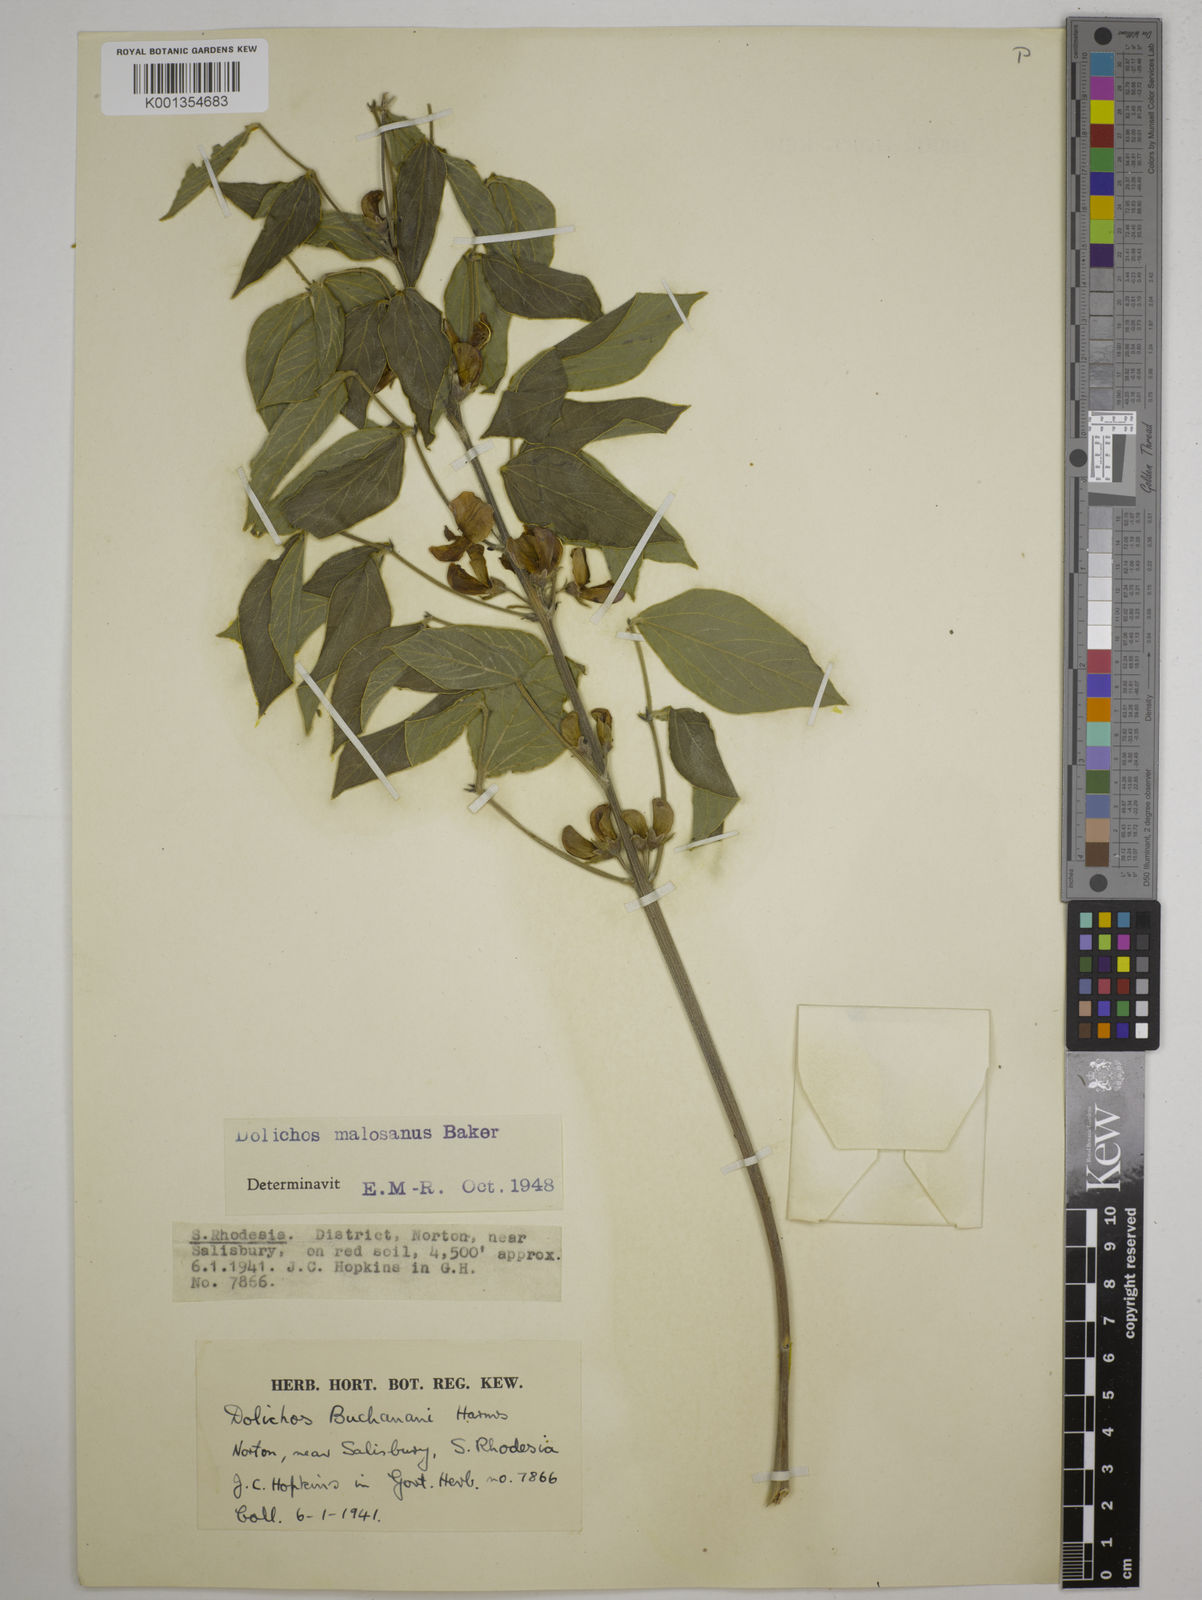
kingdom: Plantae
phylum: Tracheophyta
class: Magnoliopsida
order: Fabales
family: Fabaceae
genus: Dolichos
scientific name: Dolichos kilimandscharicus
